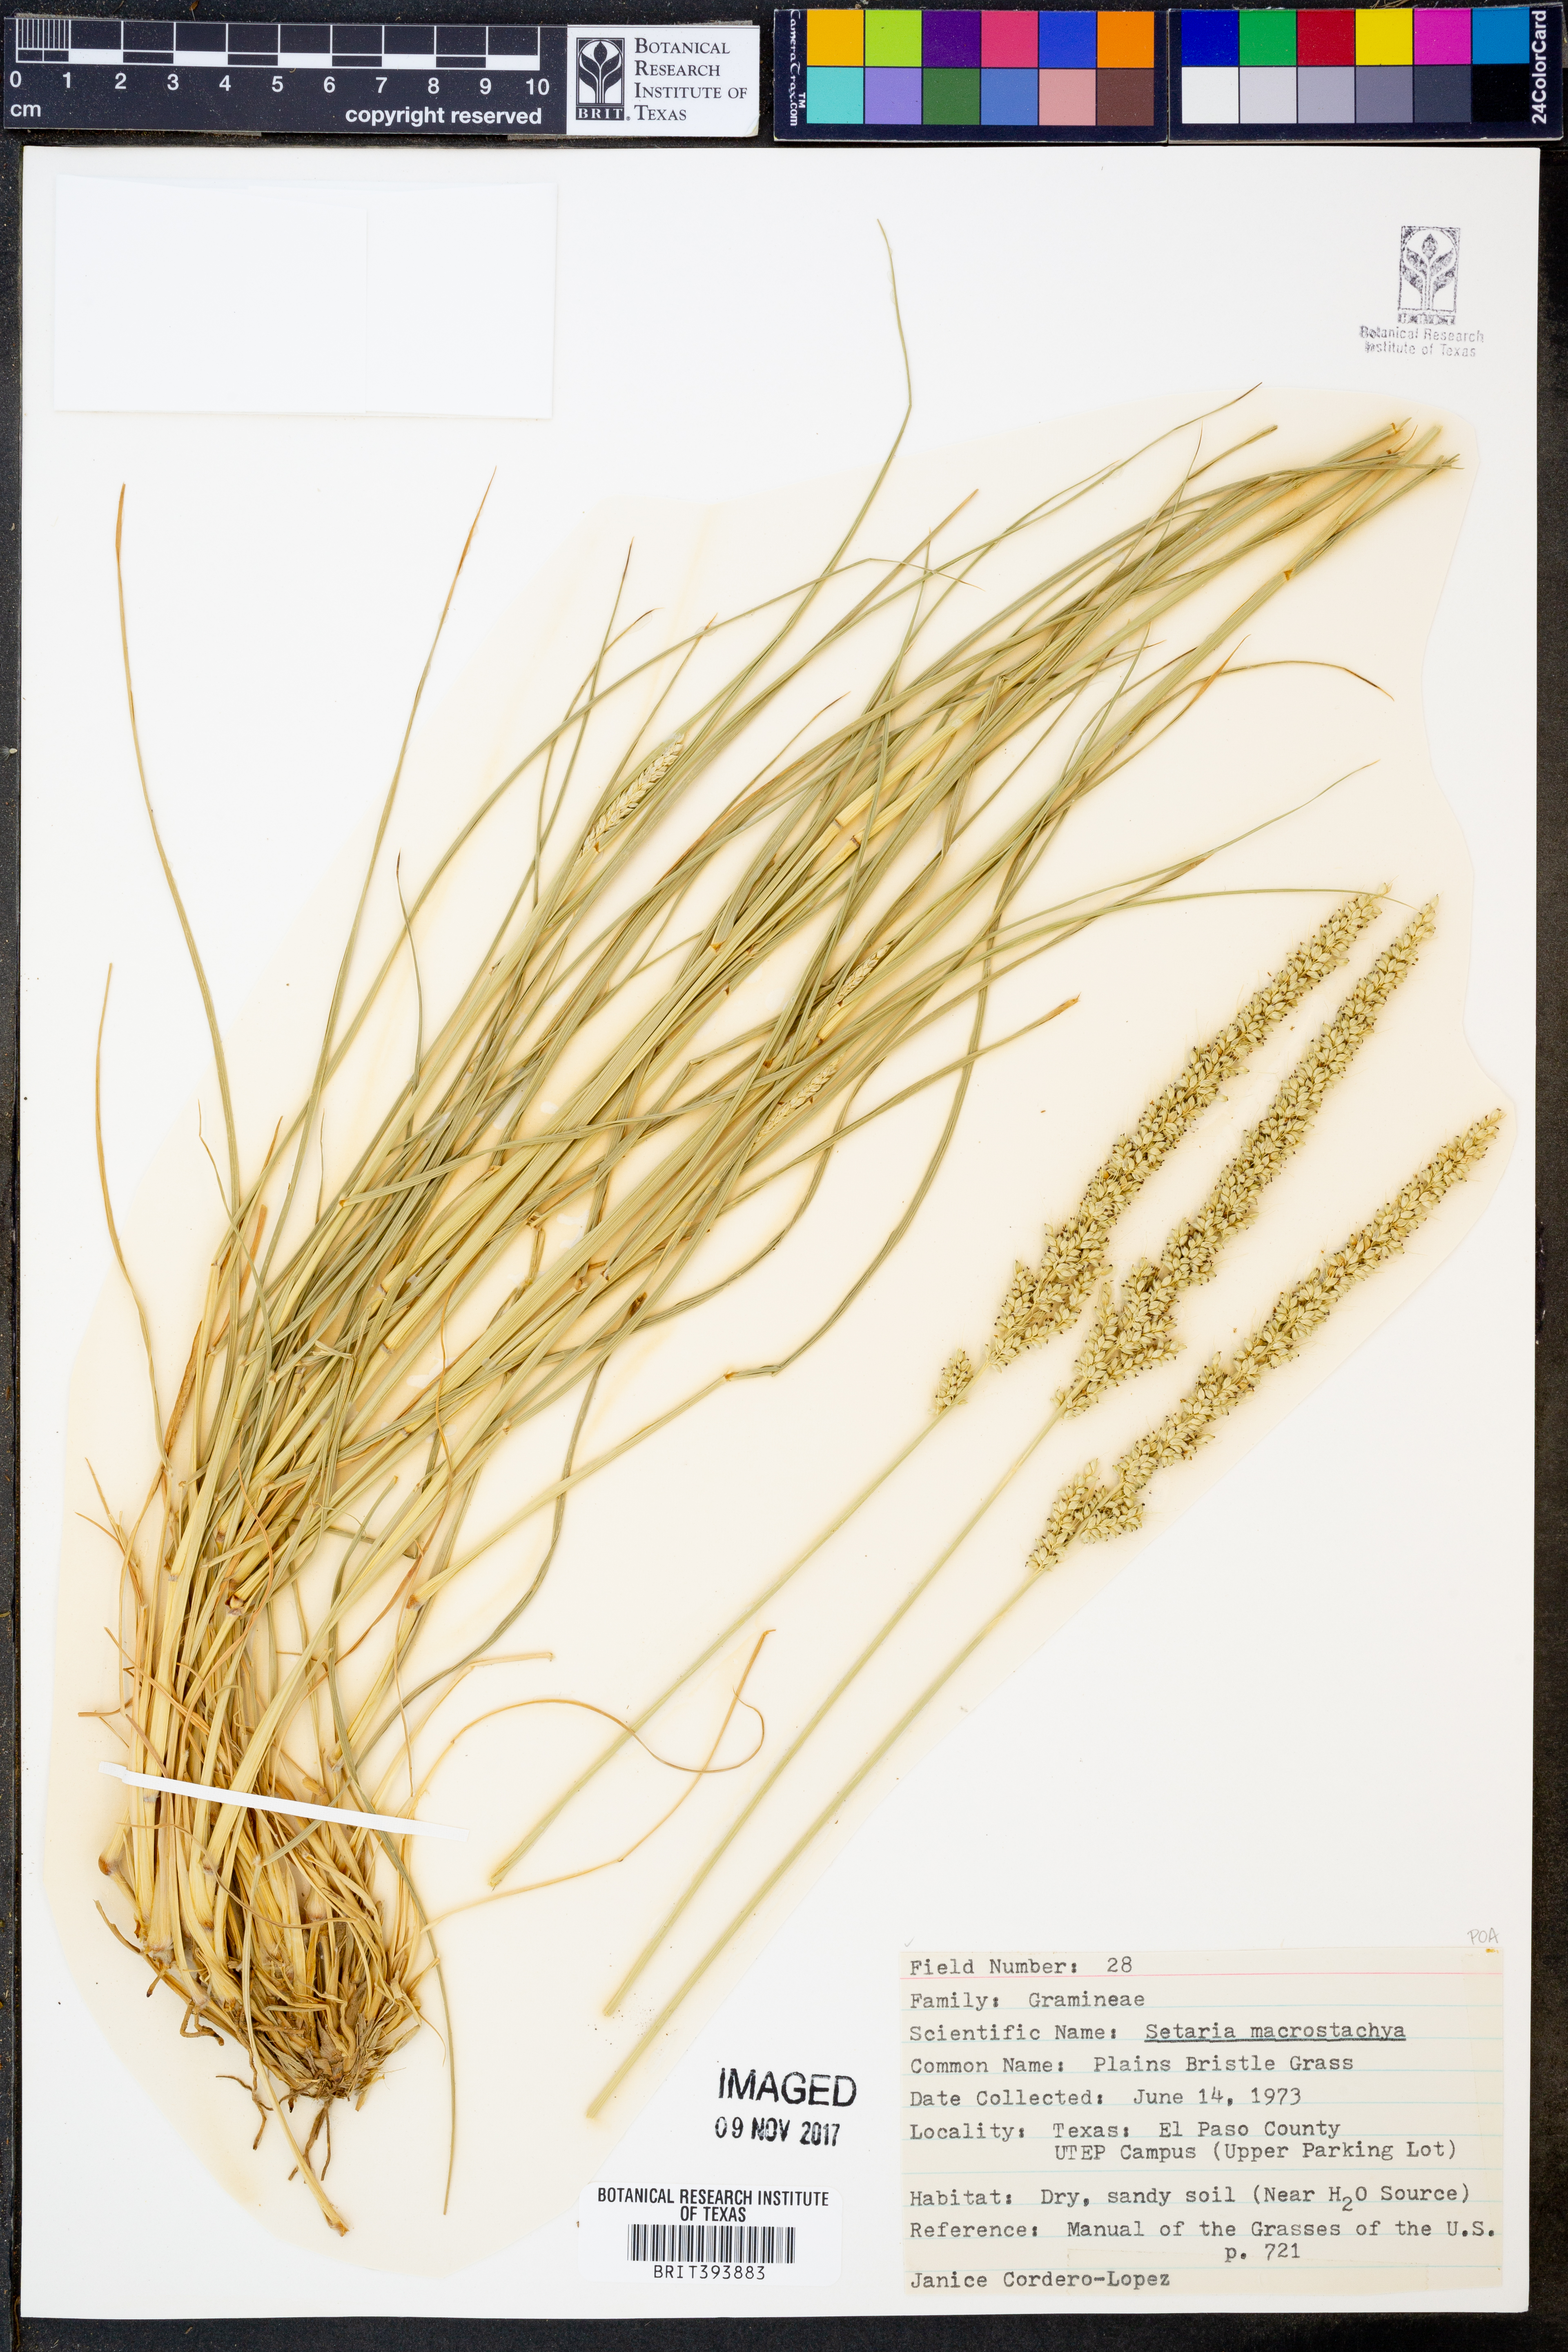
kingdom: Plantae
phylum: Tracheophyta
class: Liliopsida
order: Poales
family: Poaceae
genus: Setaria
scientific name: Setaria macrostachya
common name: Plains bristle grass
